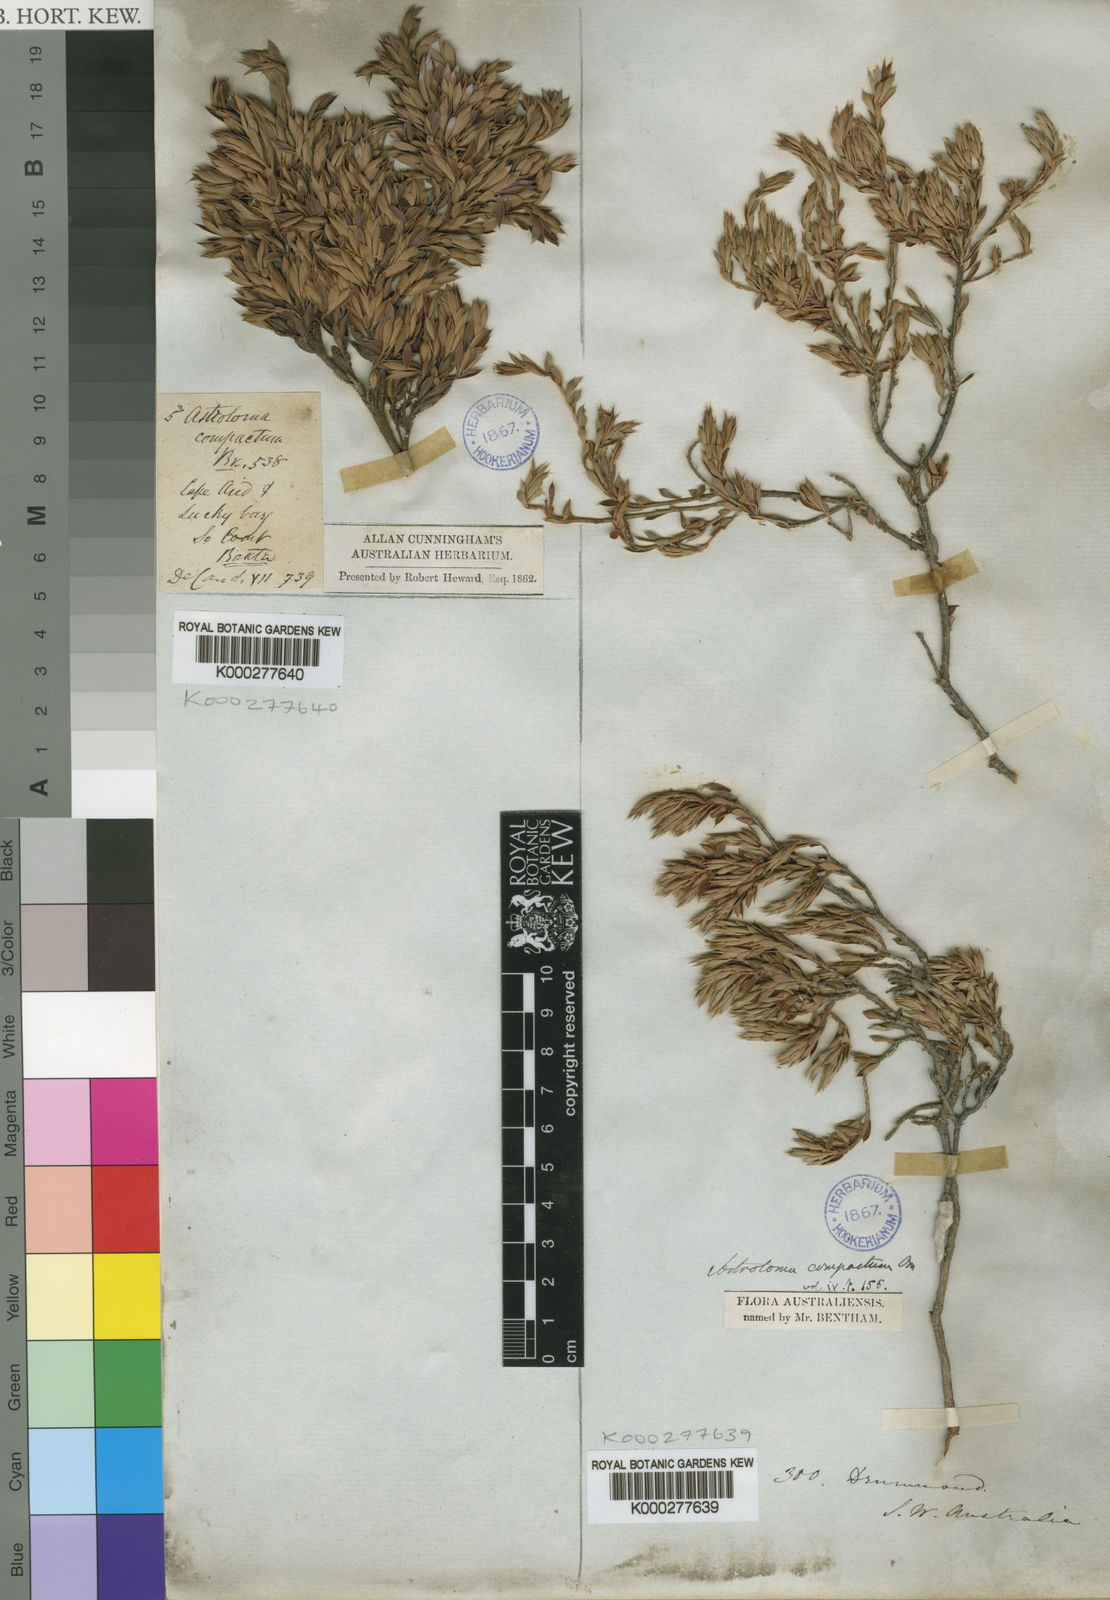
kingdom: Plantae
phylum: Tracheophyta
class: Magnoliopsida
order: Ericales
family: Ericaceae
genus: Styphelia
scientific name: Styphelia compacta
